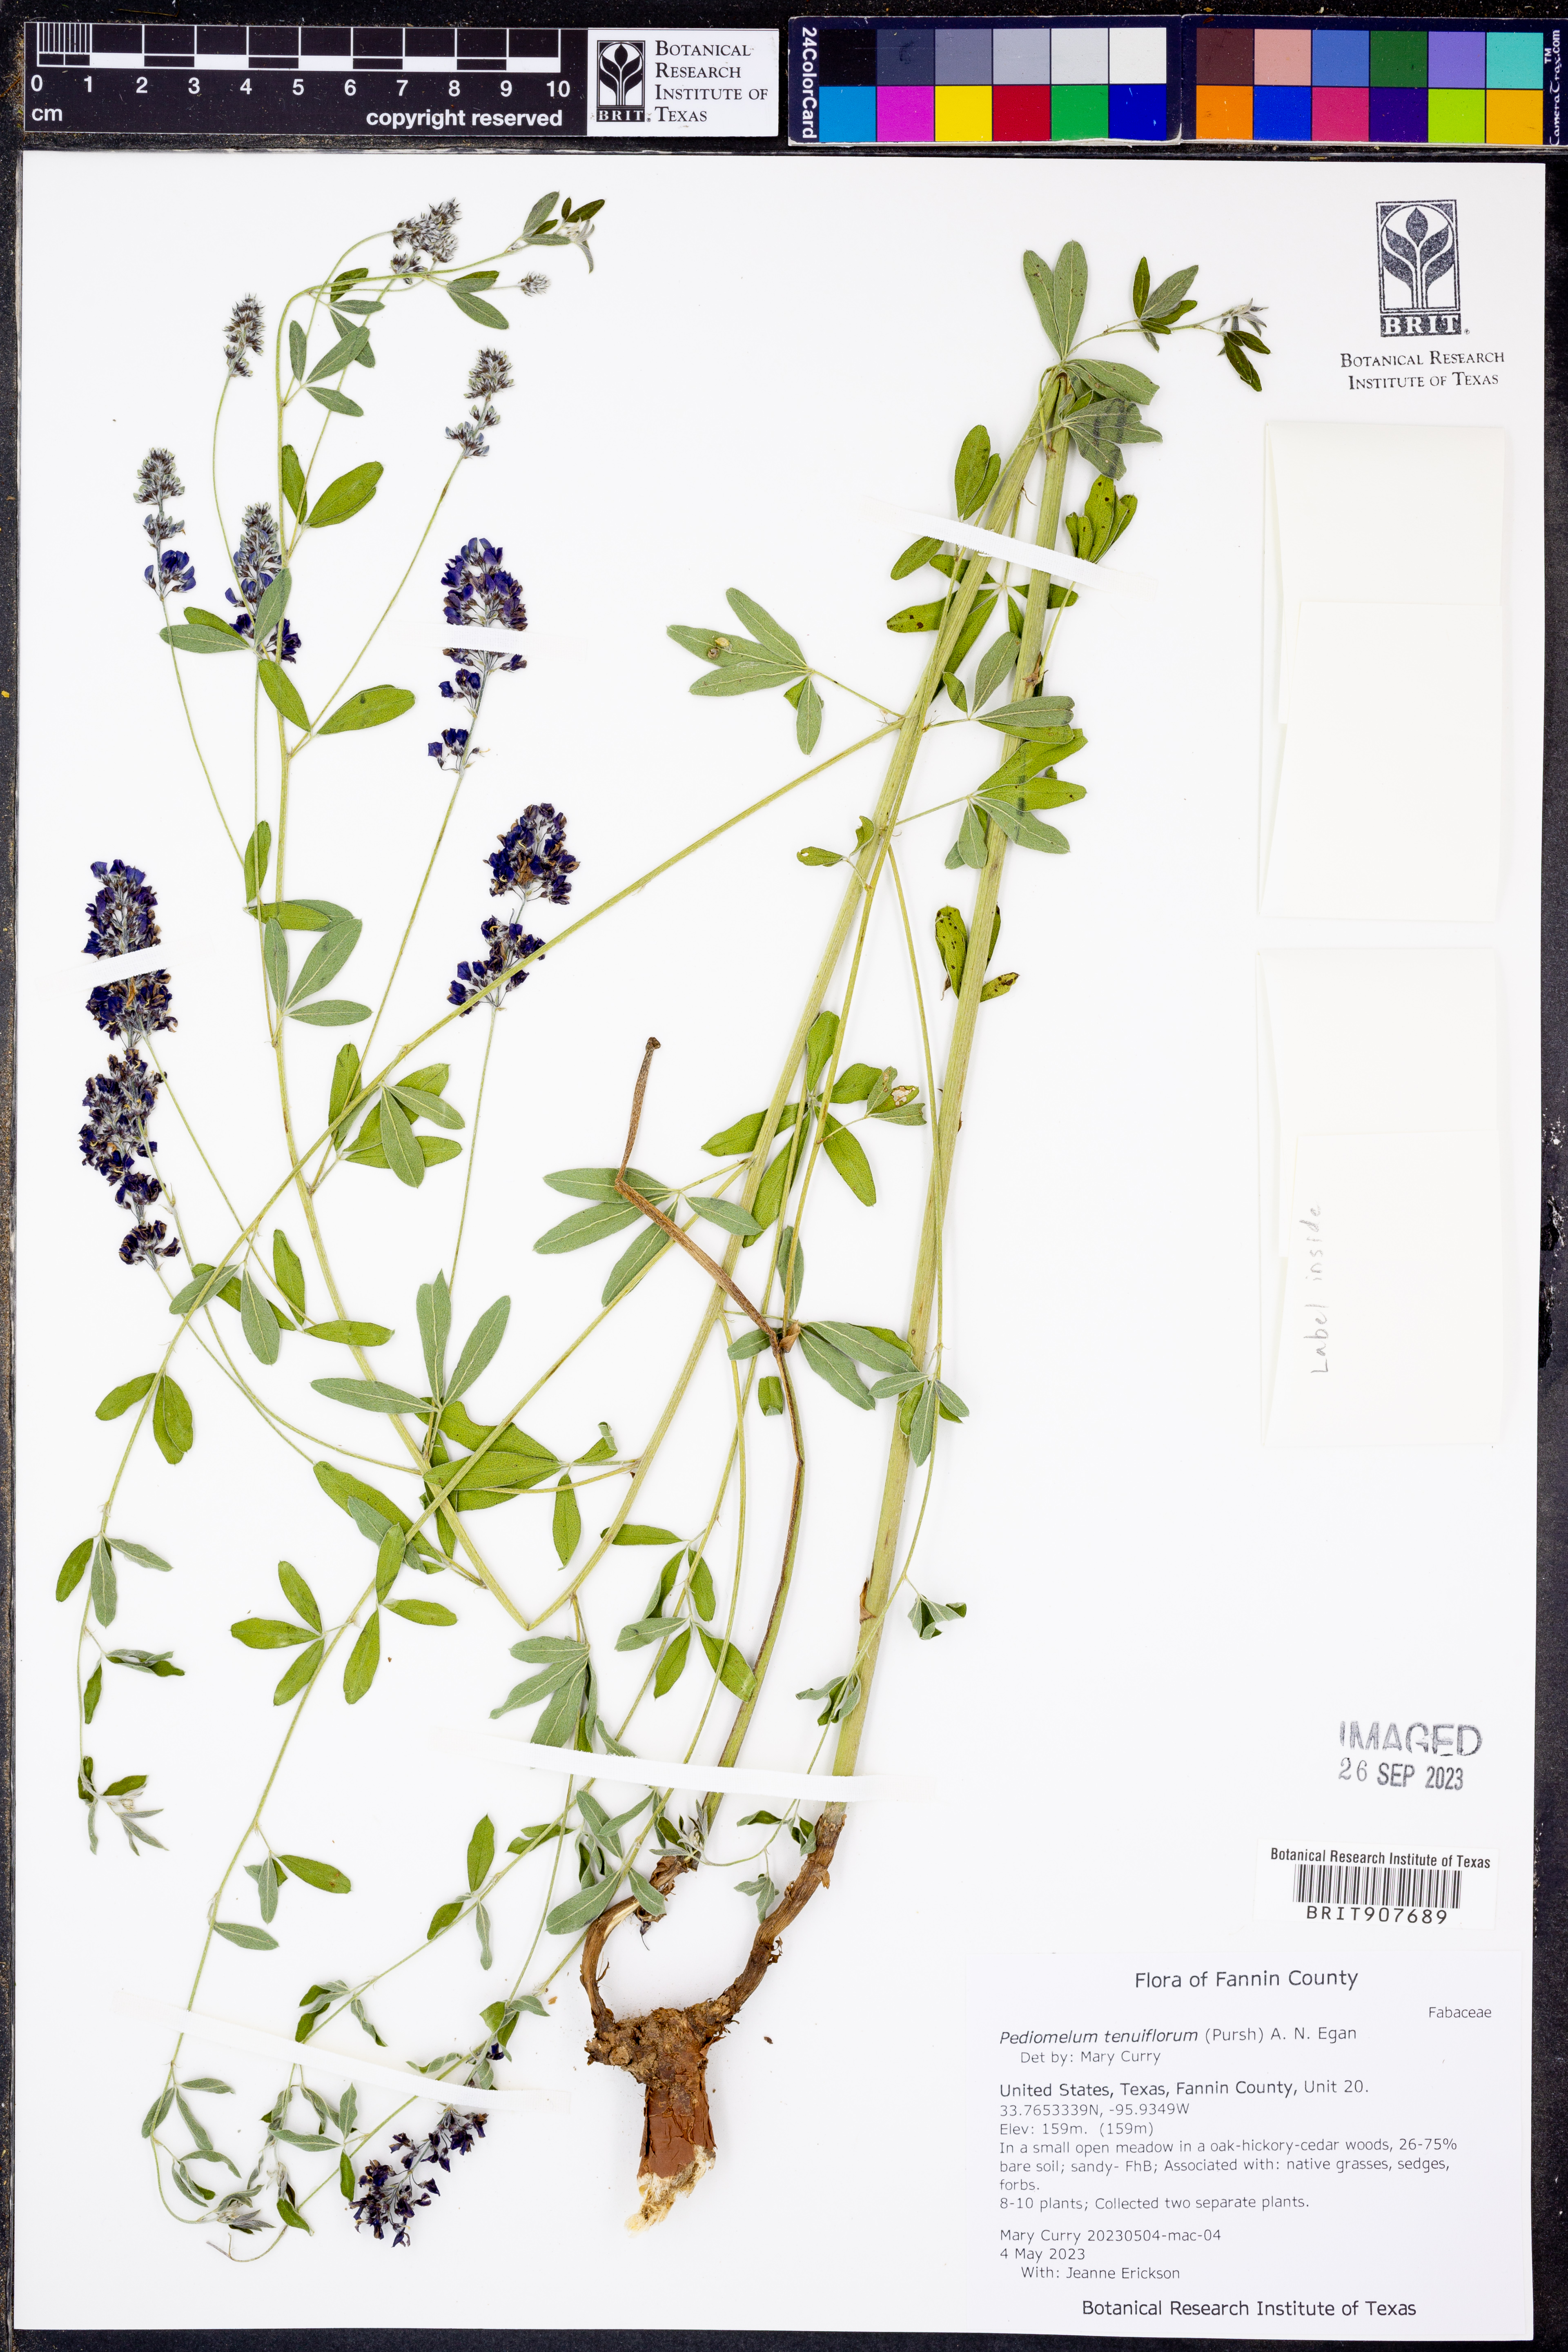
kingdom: Plantae
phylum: Tracheophyta
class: Magnoliopsida
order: Fabales
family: Fabaceae
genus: Pediomelum
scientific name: Pediomelum tenuiflorum
